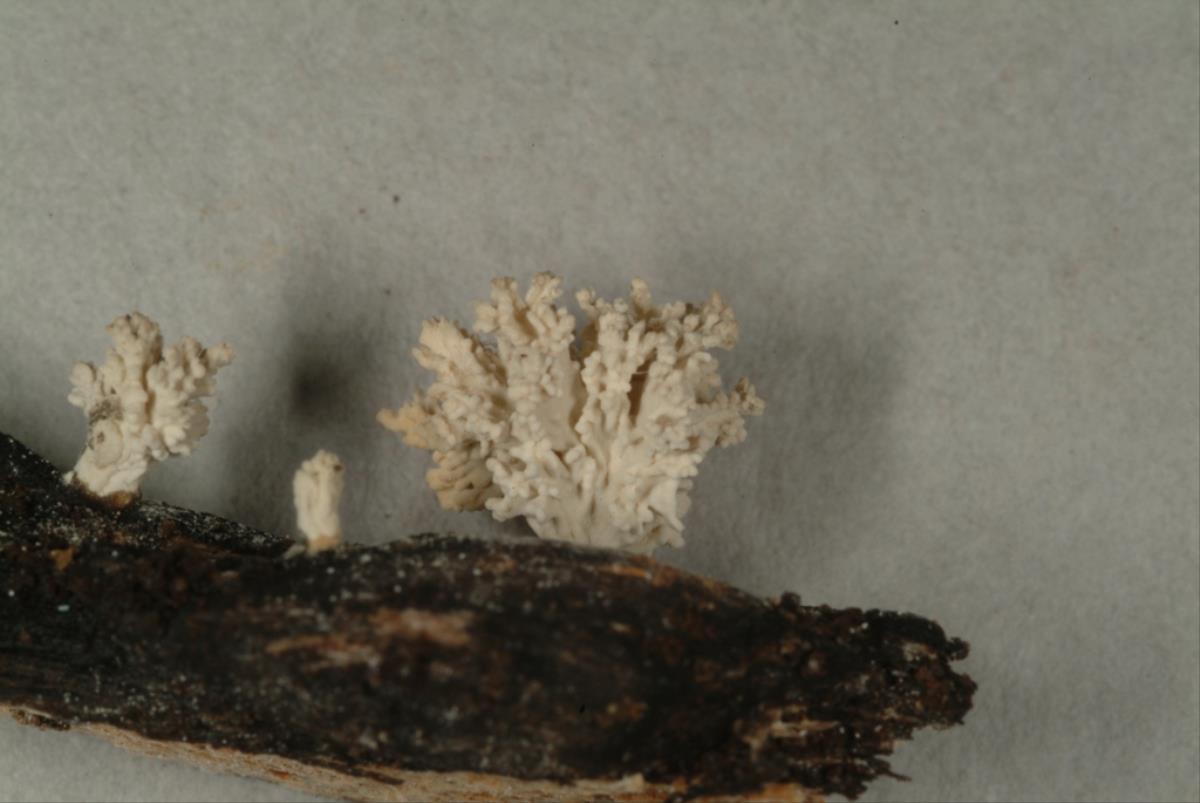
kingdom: Fungi
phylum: Ascomycota
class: Sordariomycetes
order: Xylariales
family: Xylariaceae
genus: Xylaria
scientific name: Xylaria cubensis
